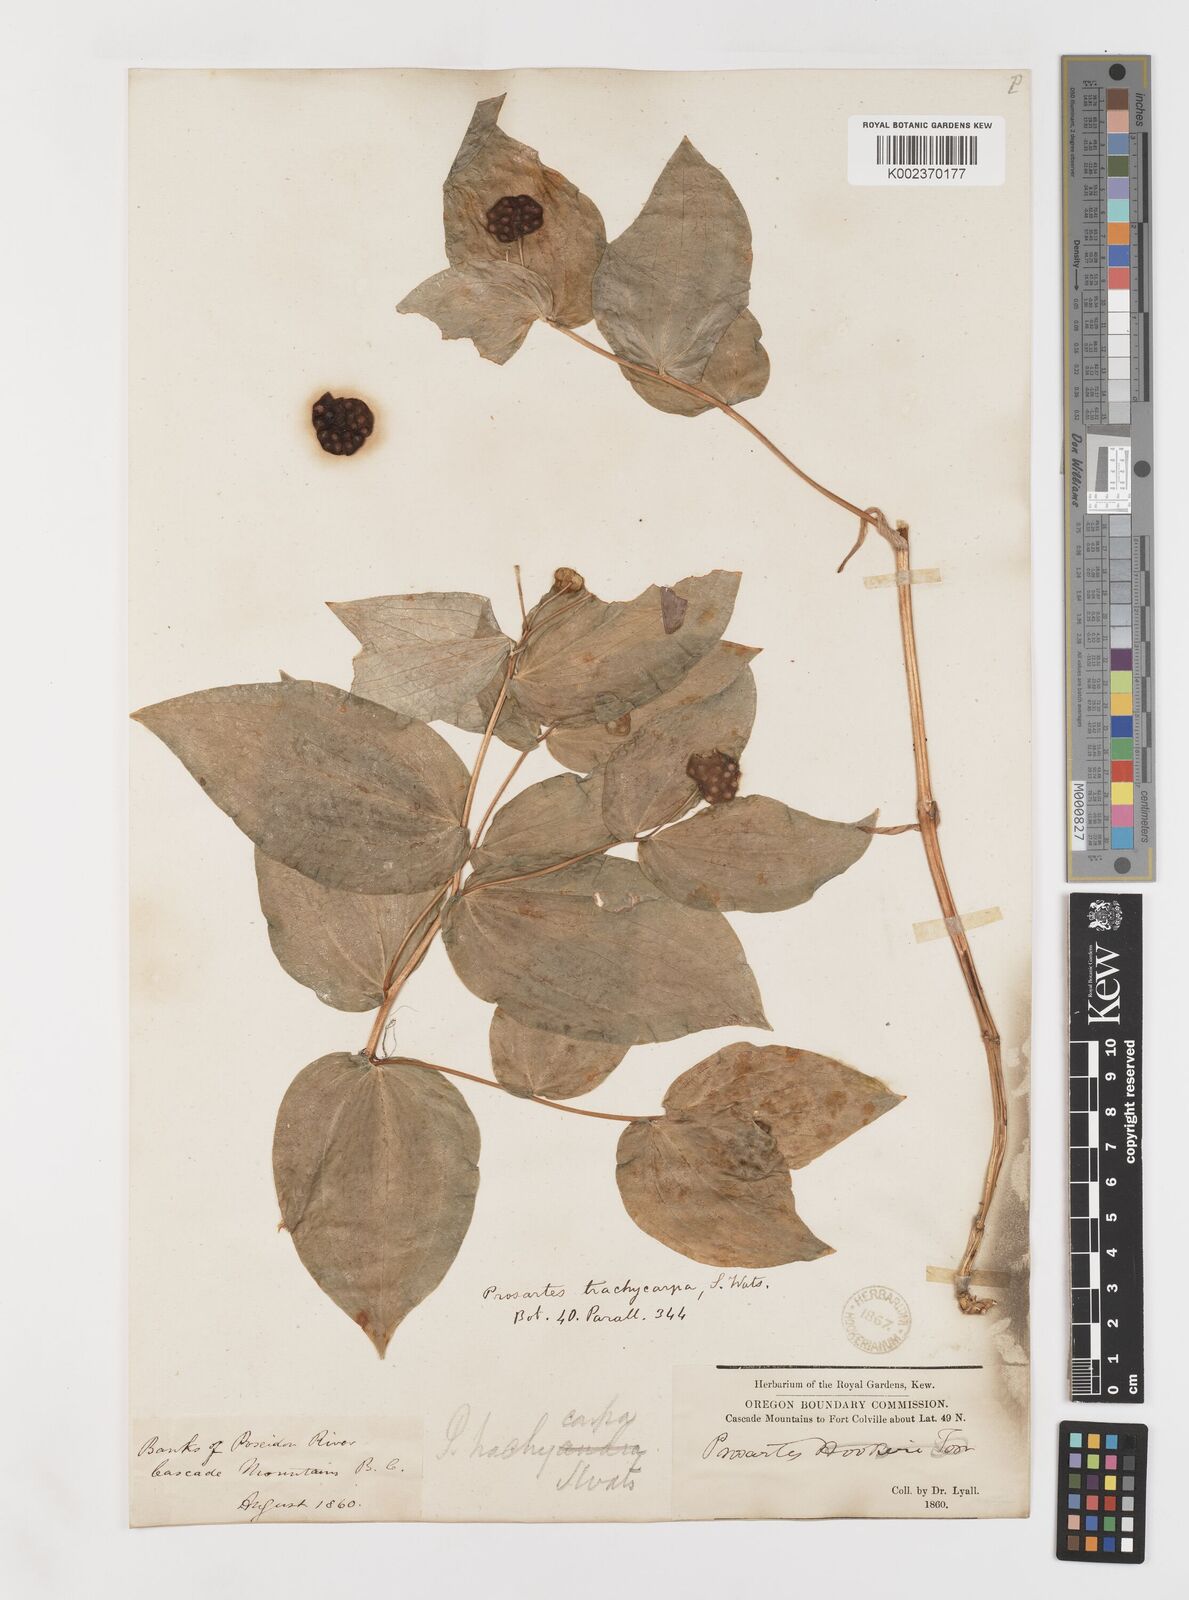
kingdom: Plantae
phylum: Tracheophyta
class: Liliopsida
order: Liliales
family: Liliaceae
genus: Prosartes
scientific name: Prosartes trachycarpa
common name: Rough-fruit fairy-bells
